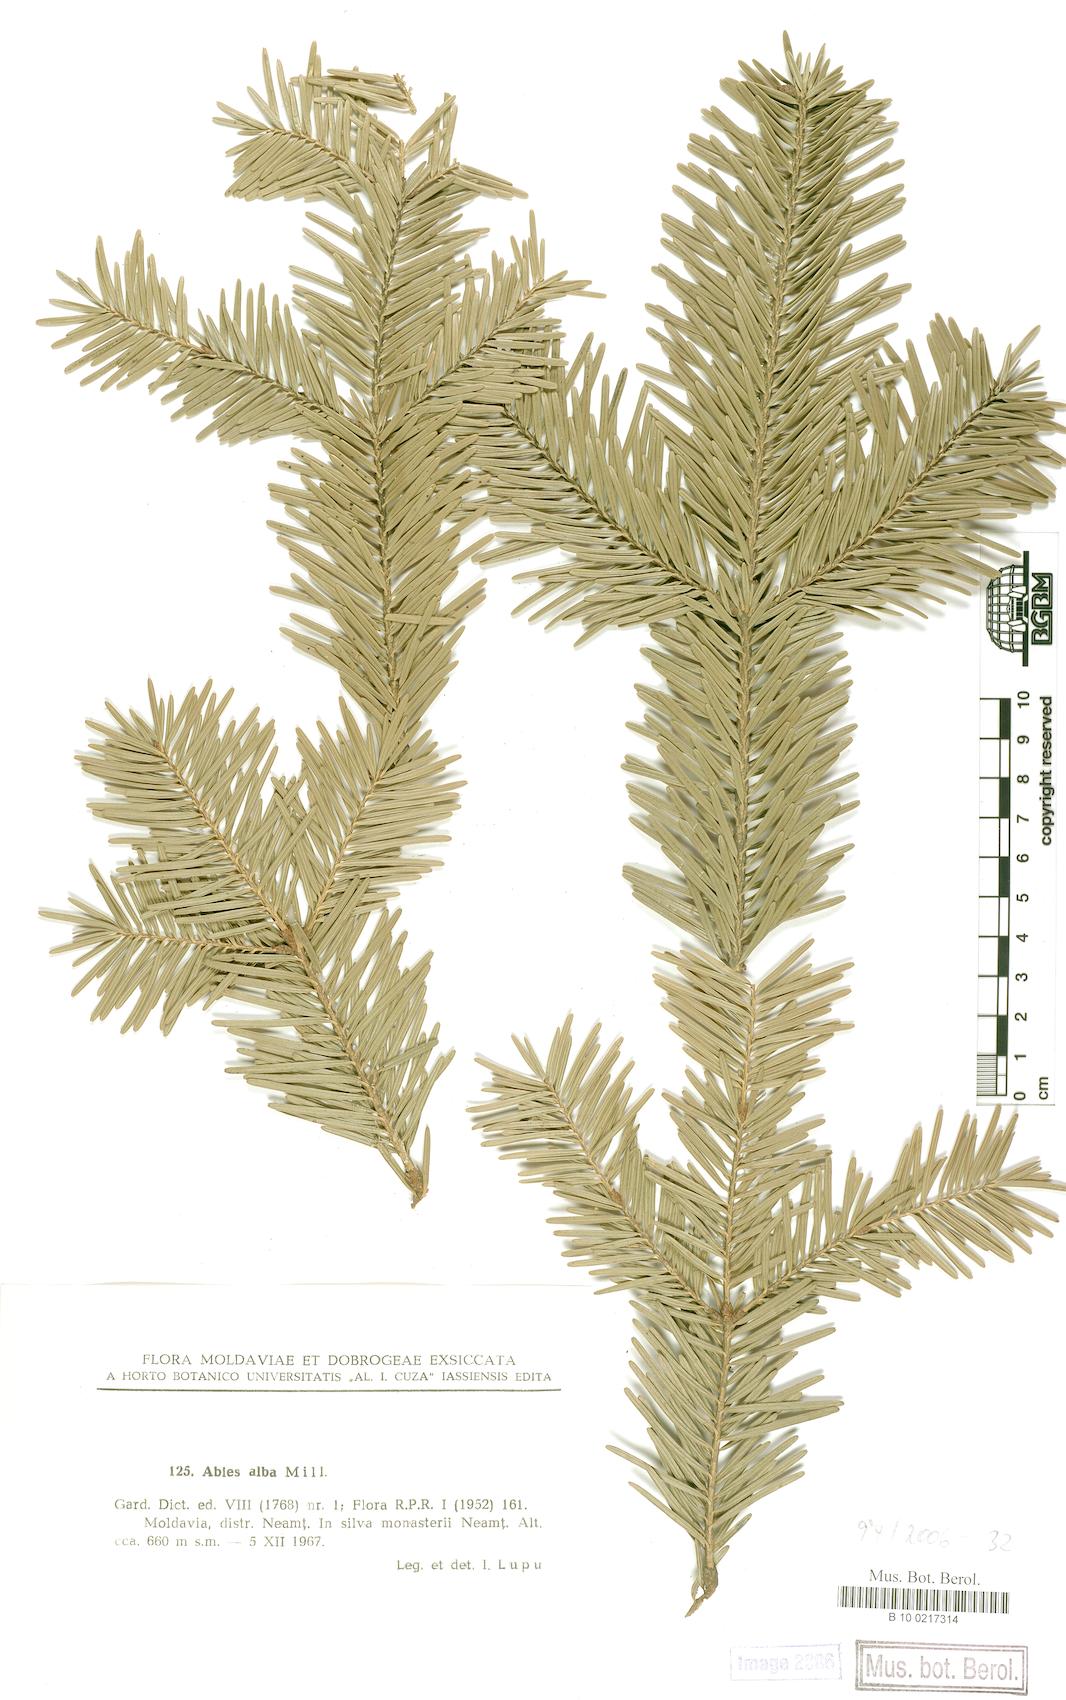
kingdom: Plantae
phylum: Tracheophyta
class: Pinopsida
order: Pinales
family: Pinaceae
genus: Abies
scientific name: Abies alba
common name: Silver fir
